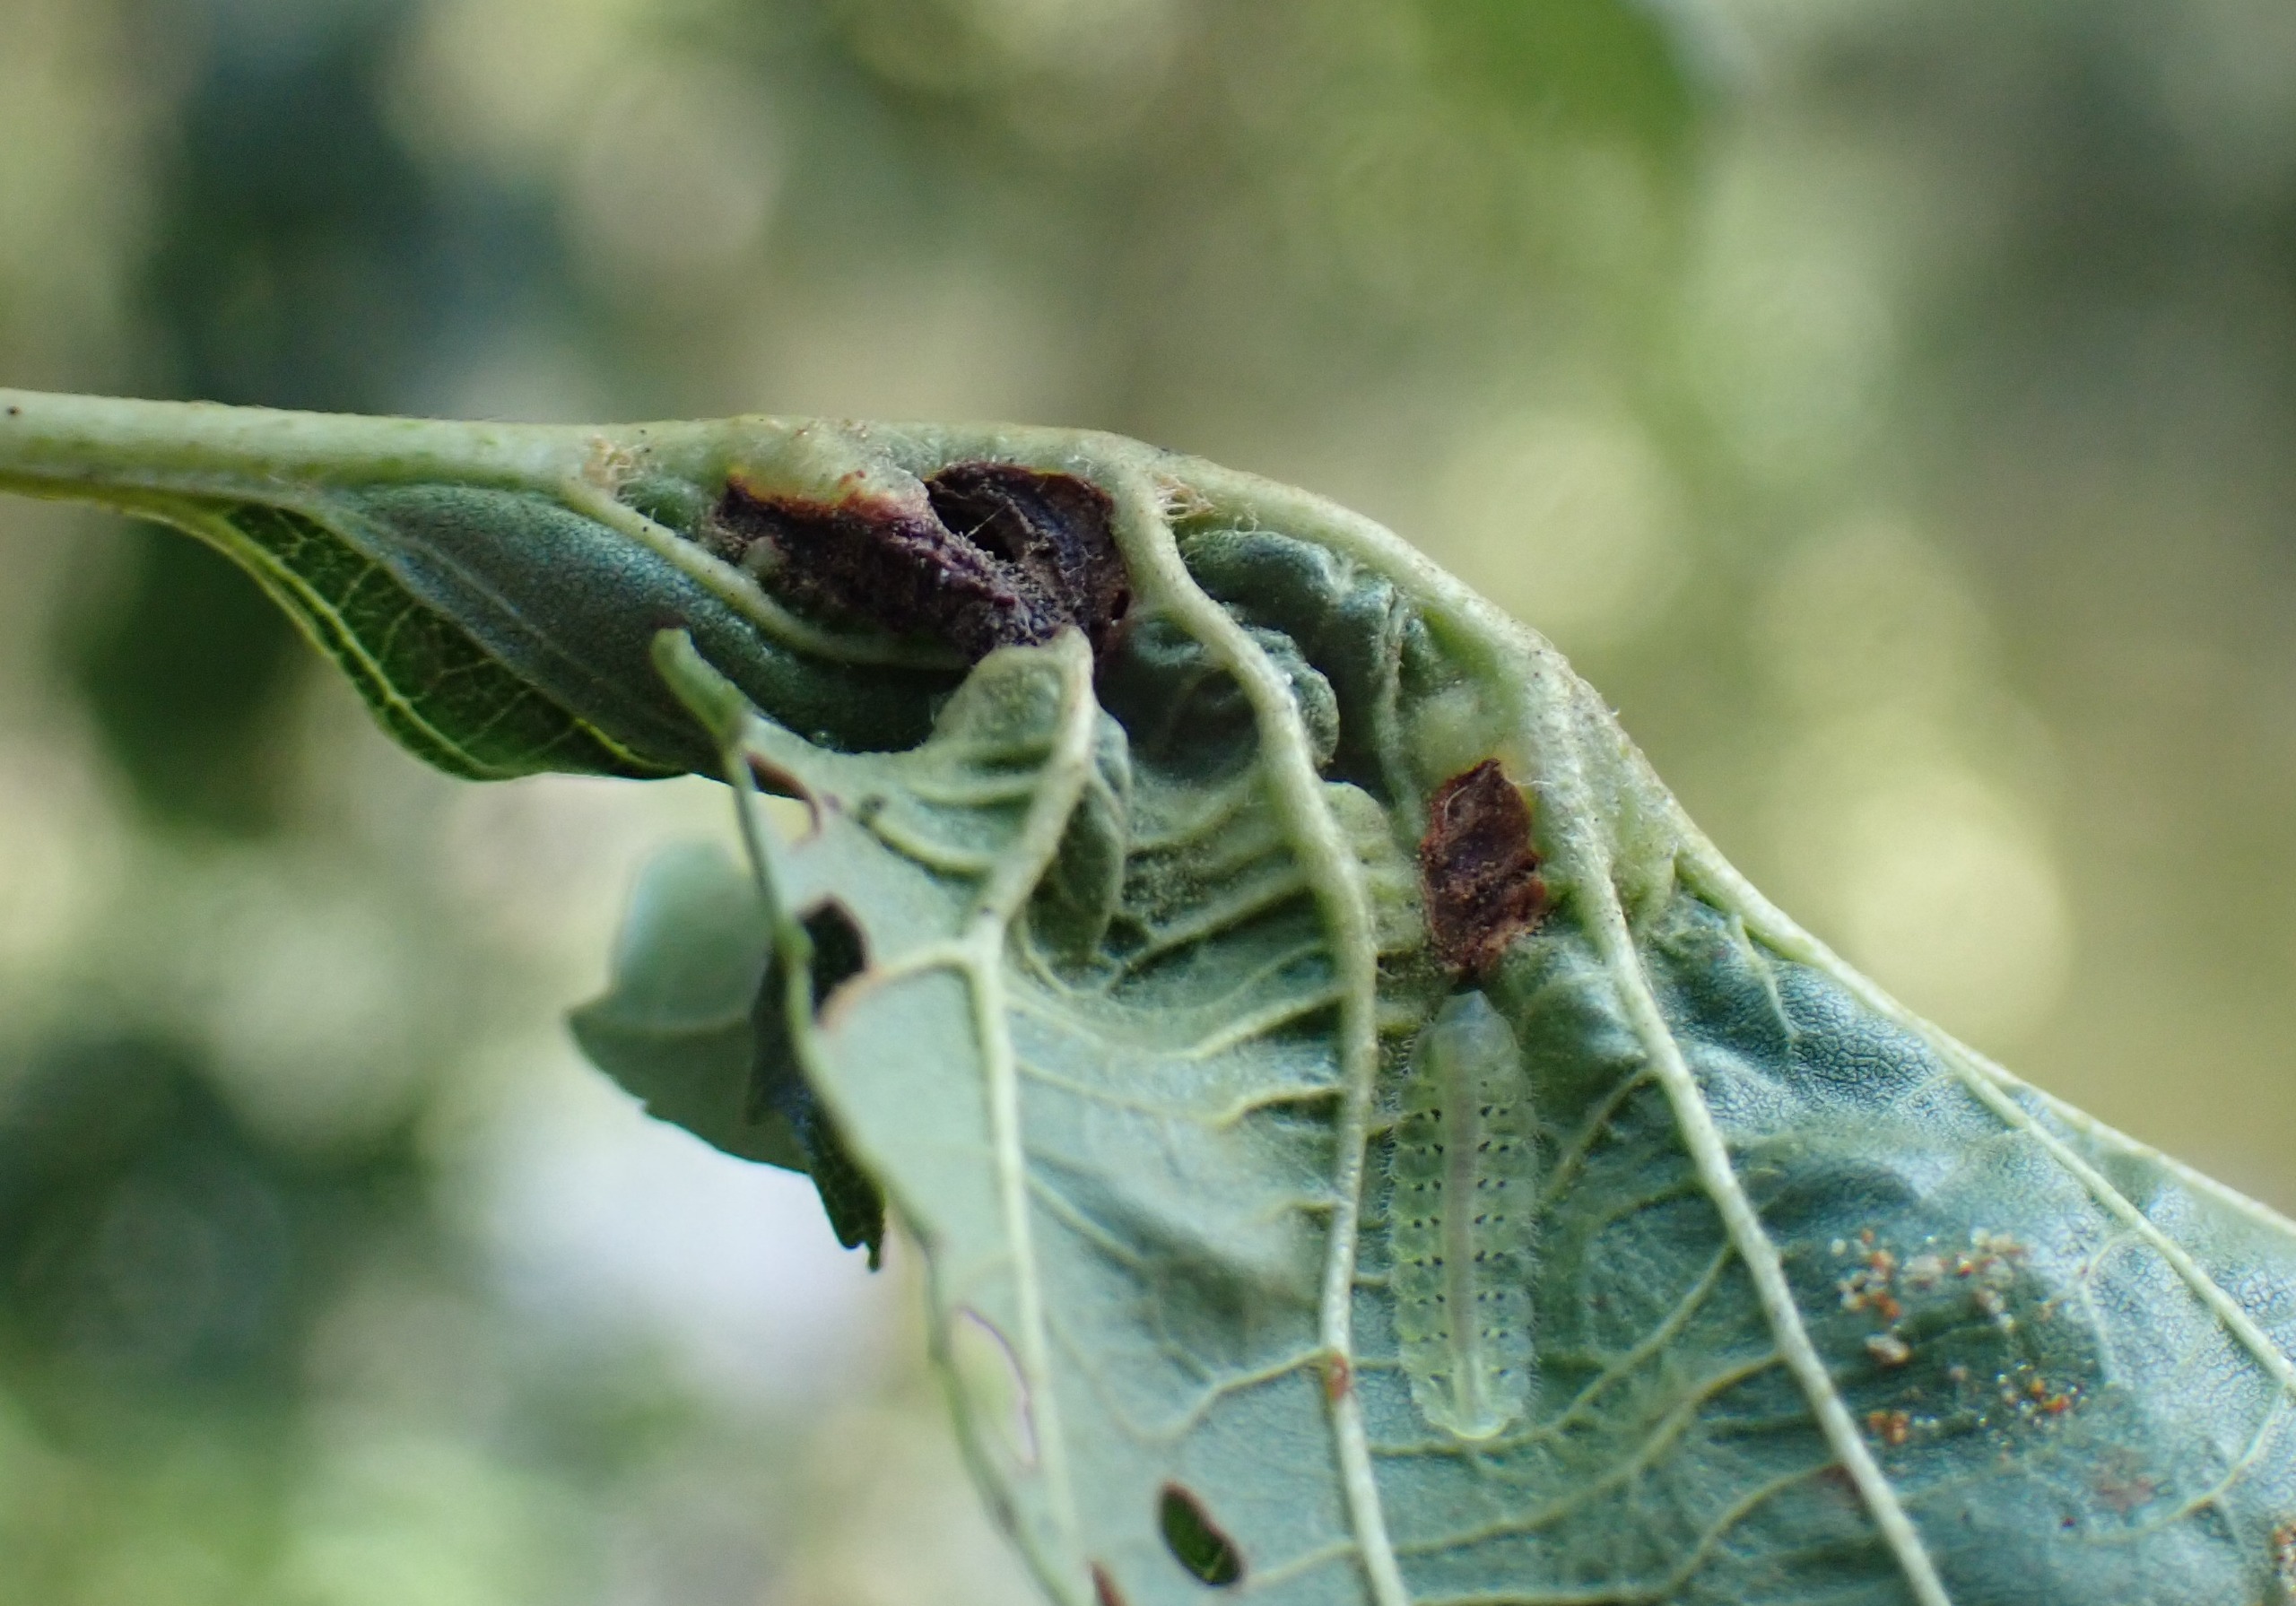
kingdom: Animalia
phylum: Arthropoda
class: Insecta
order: Diptera
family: Cecidomyiidae
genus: Dasineura
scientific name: Dasineura tortilis
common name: Ellebladgalmyg
